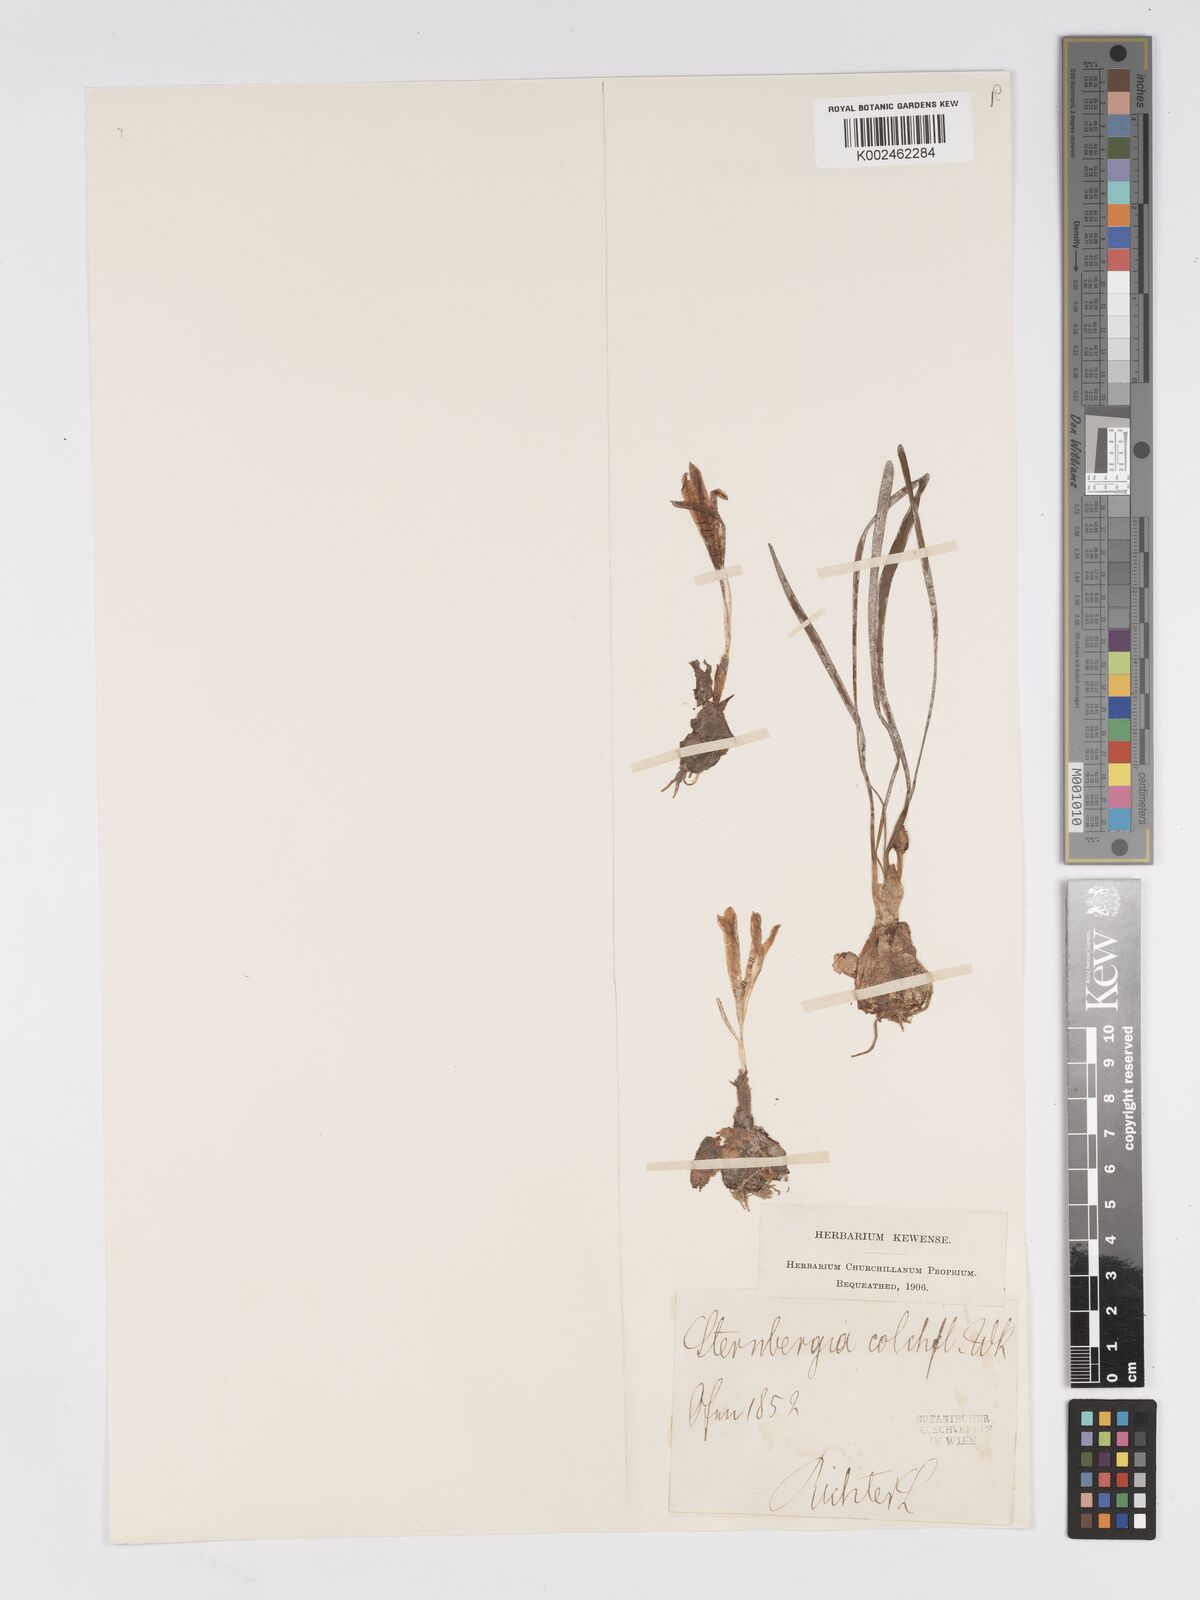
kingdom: Plantae
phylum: Tracheophyta
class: Liliopsida
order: Asparagales
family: Amaryllidaceae
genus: Sternbergia
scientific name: Sternbergia colchiciflora
